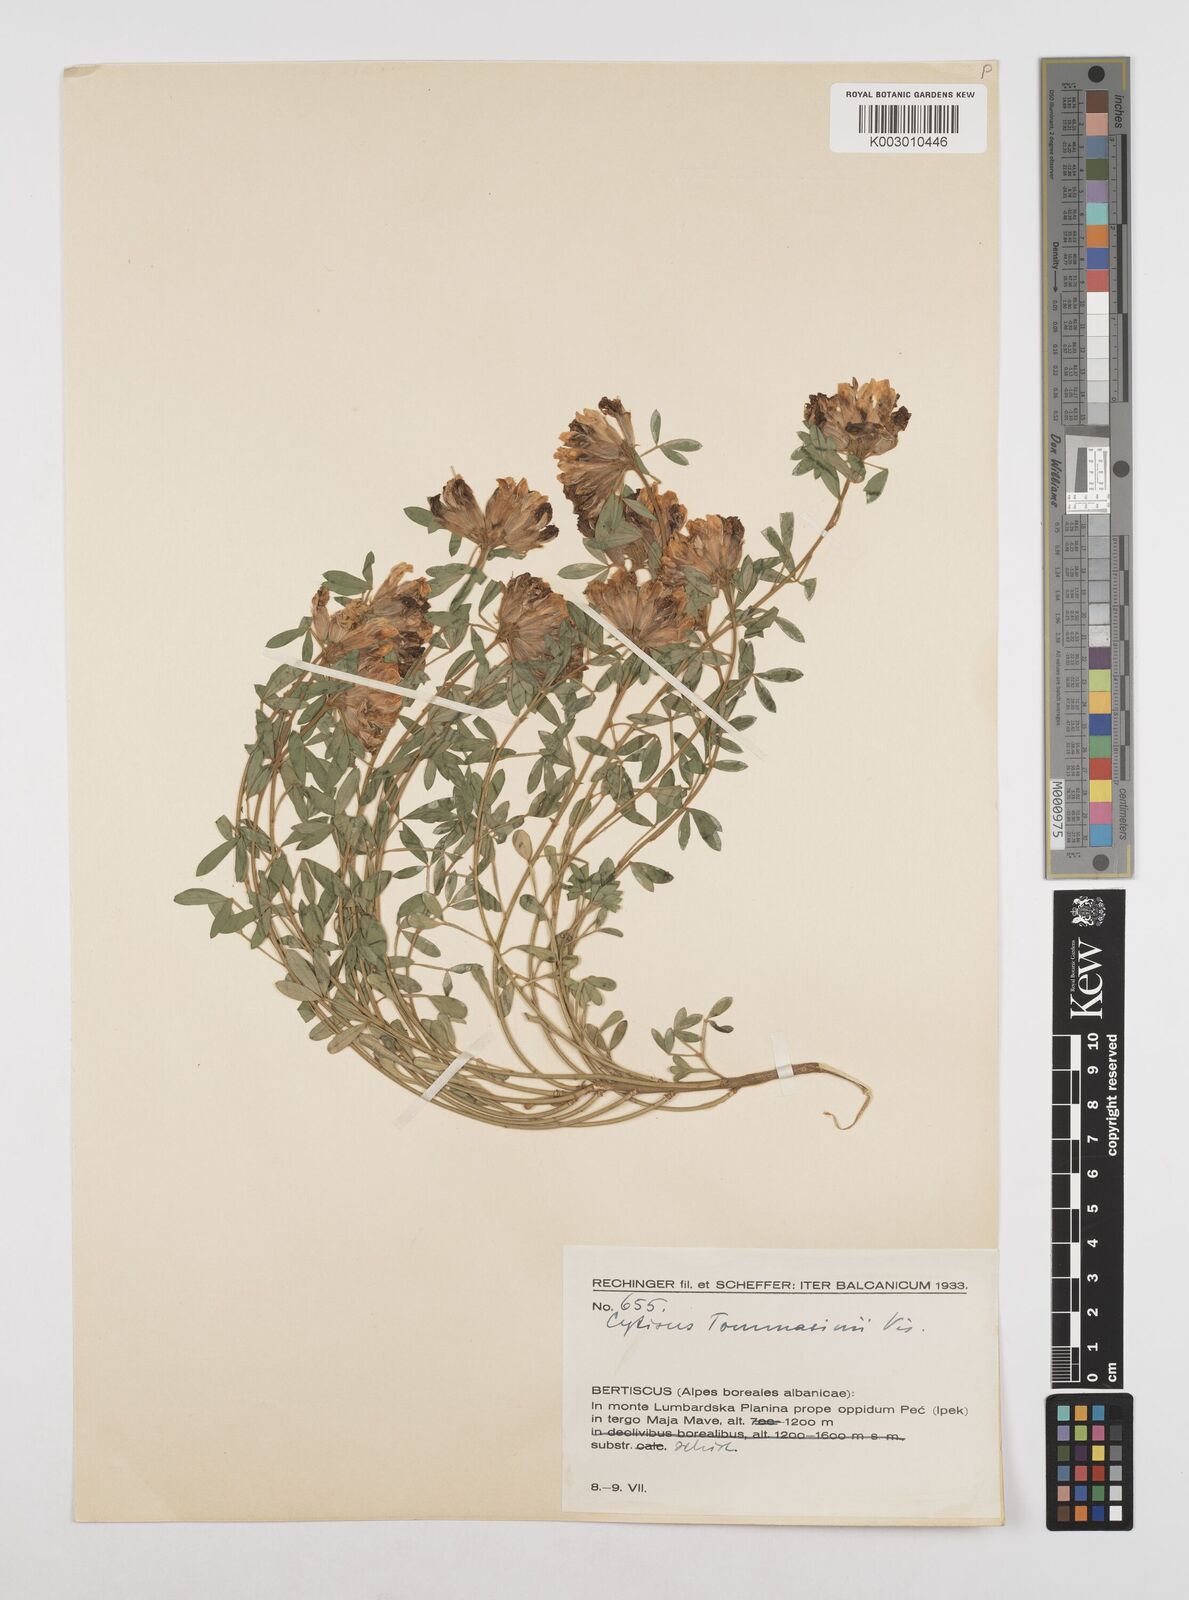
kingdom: Plantae
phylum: Tracheophyta
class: Magnoliopsida
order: Fabales
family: Fabaceae
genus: Chamaecytisus
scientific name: Chamaecytisus tommasinii
